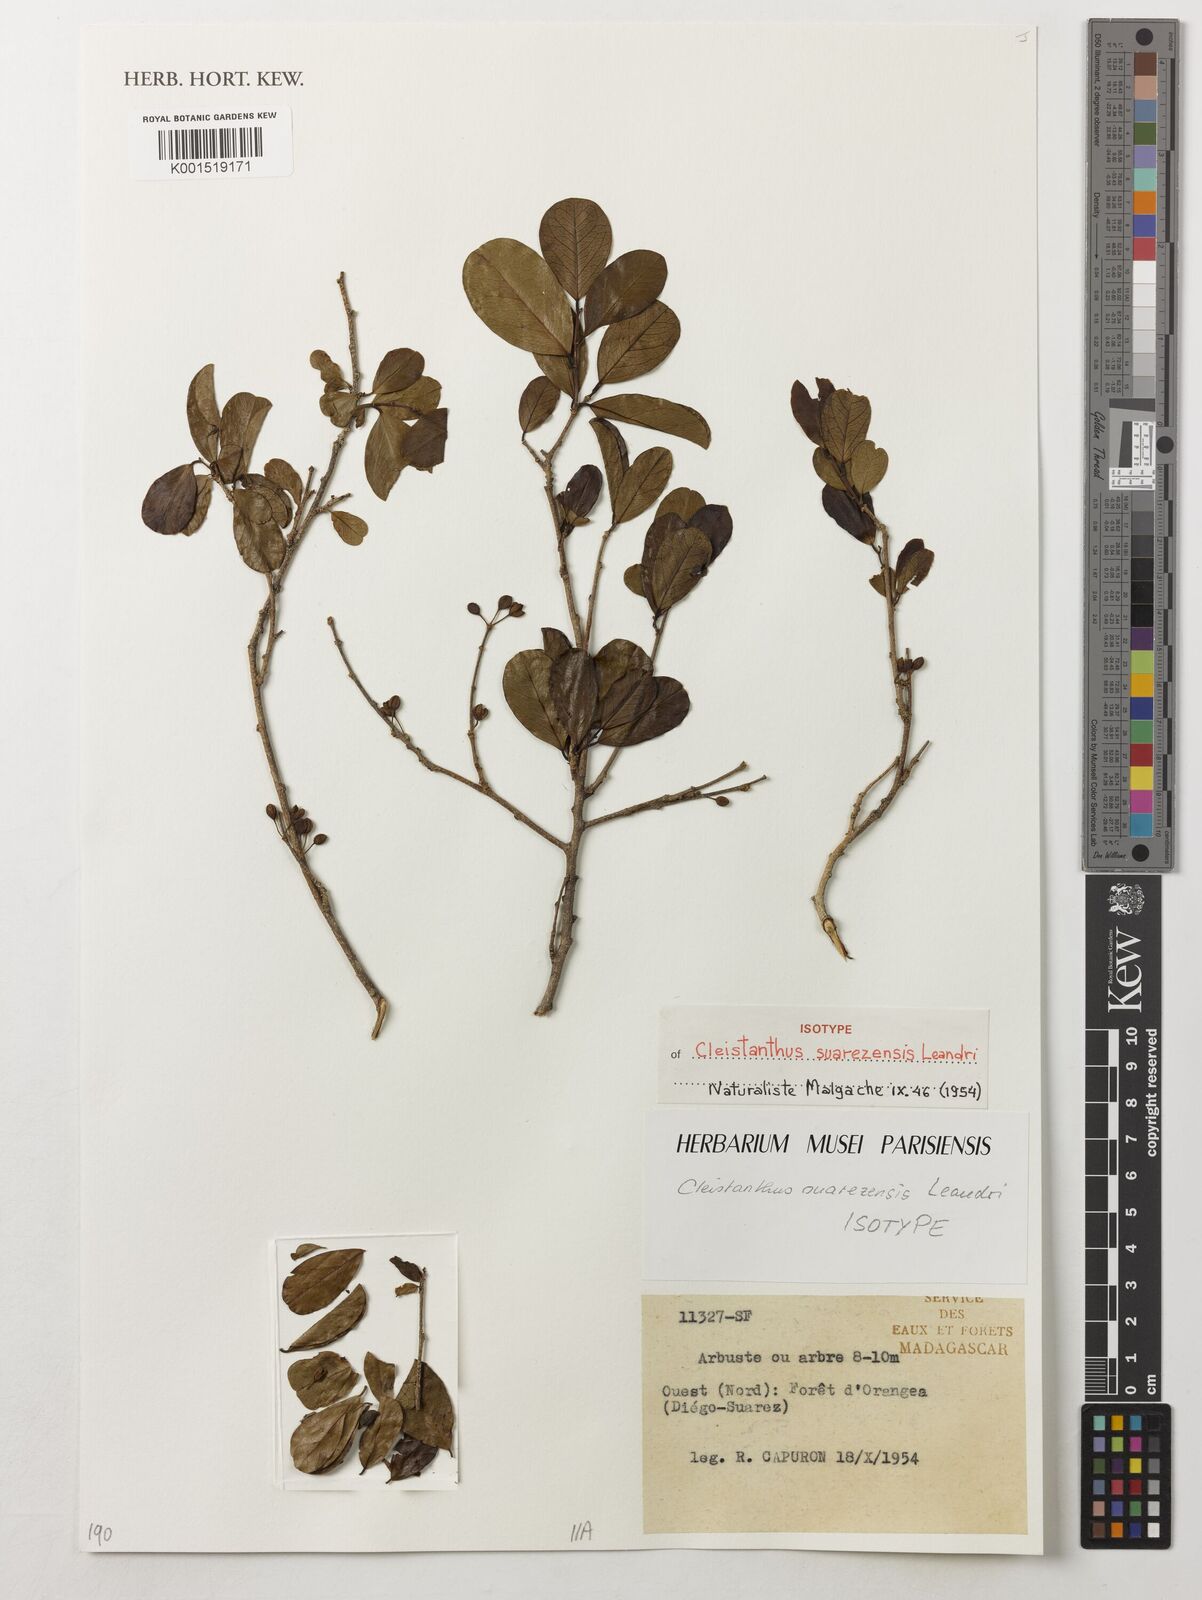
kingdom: Plantae
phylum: Tracheophyta
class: Magnoliopsida
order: Malpighiales
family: Phyllanthaceae
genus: Cleistanthus
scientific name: Cleistanthus suarezensis
